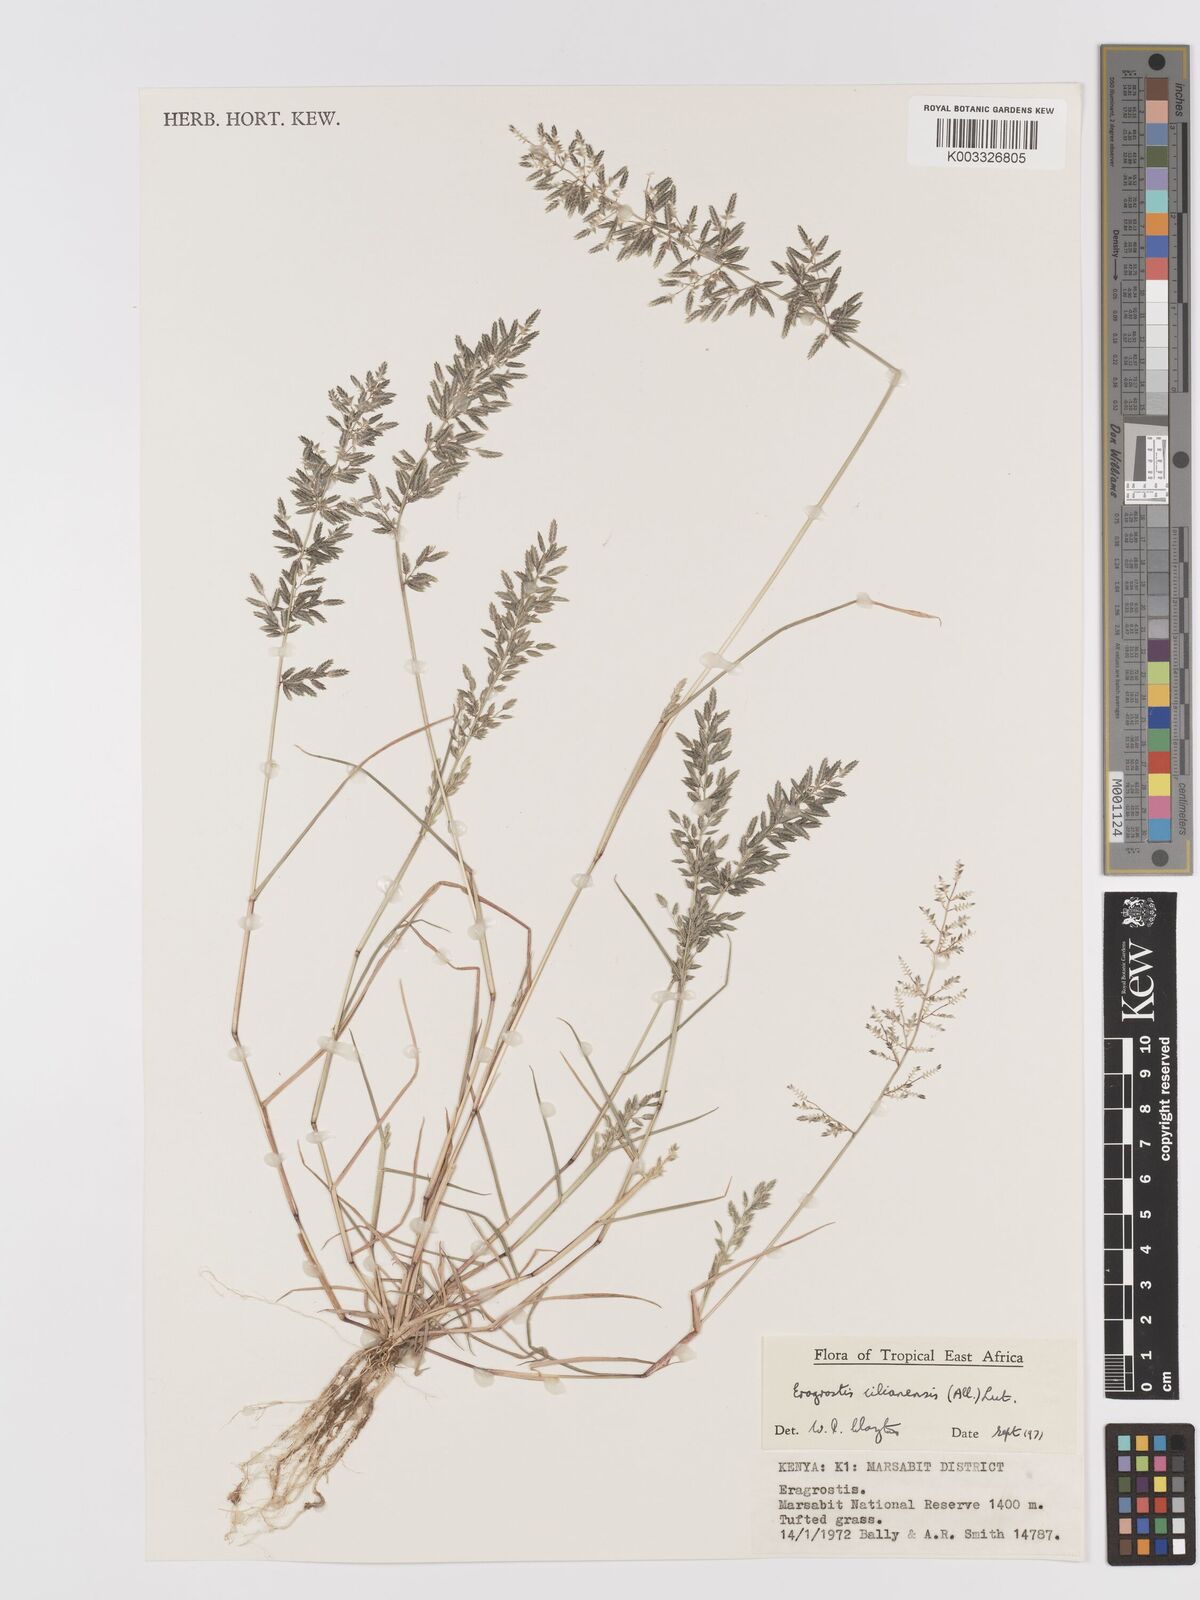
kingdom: Plantae
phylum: Tracheophyta
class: Liliopsida
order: Poales
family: Poaceae
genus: Eragrostis
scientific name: Eragrostis cilianensis
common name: Stinkgrass
